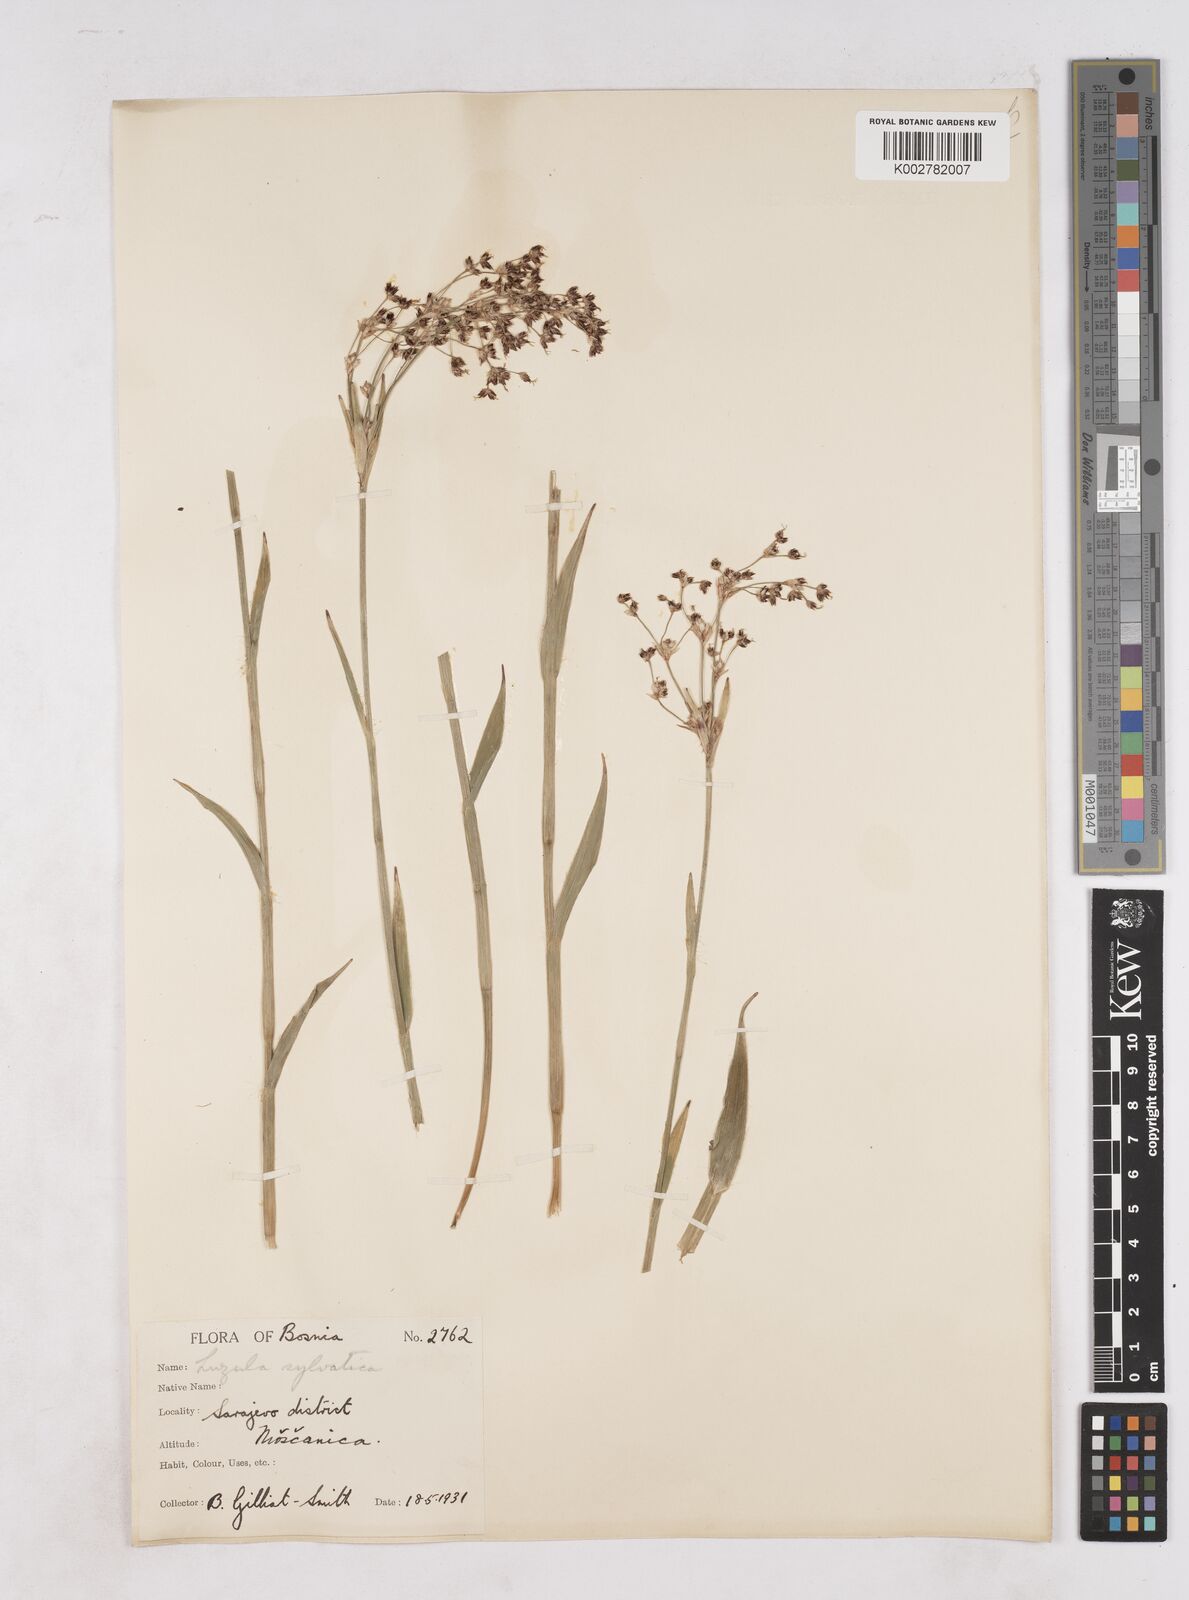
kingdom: Plantae
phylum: Tracheophyta
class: Liliopsida
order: Poales
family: Juncaceae
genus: Luzula
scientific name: Luzula sylvatica
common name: Great wood-rush
